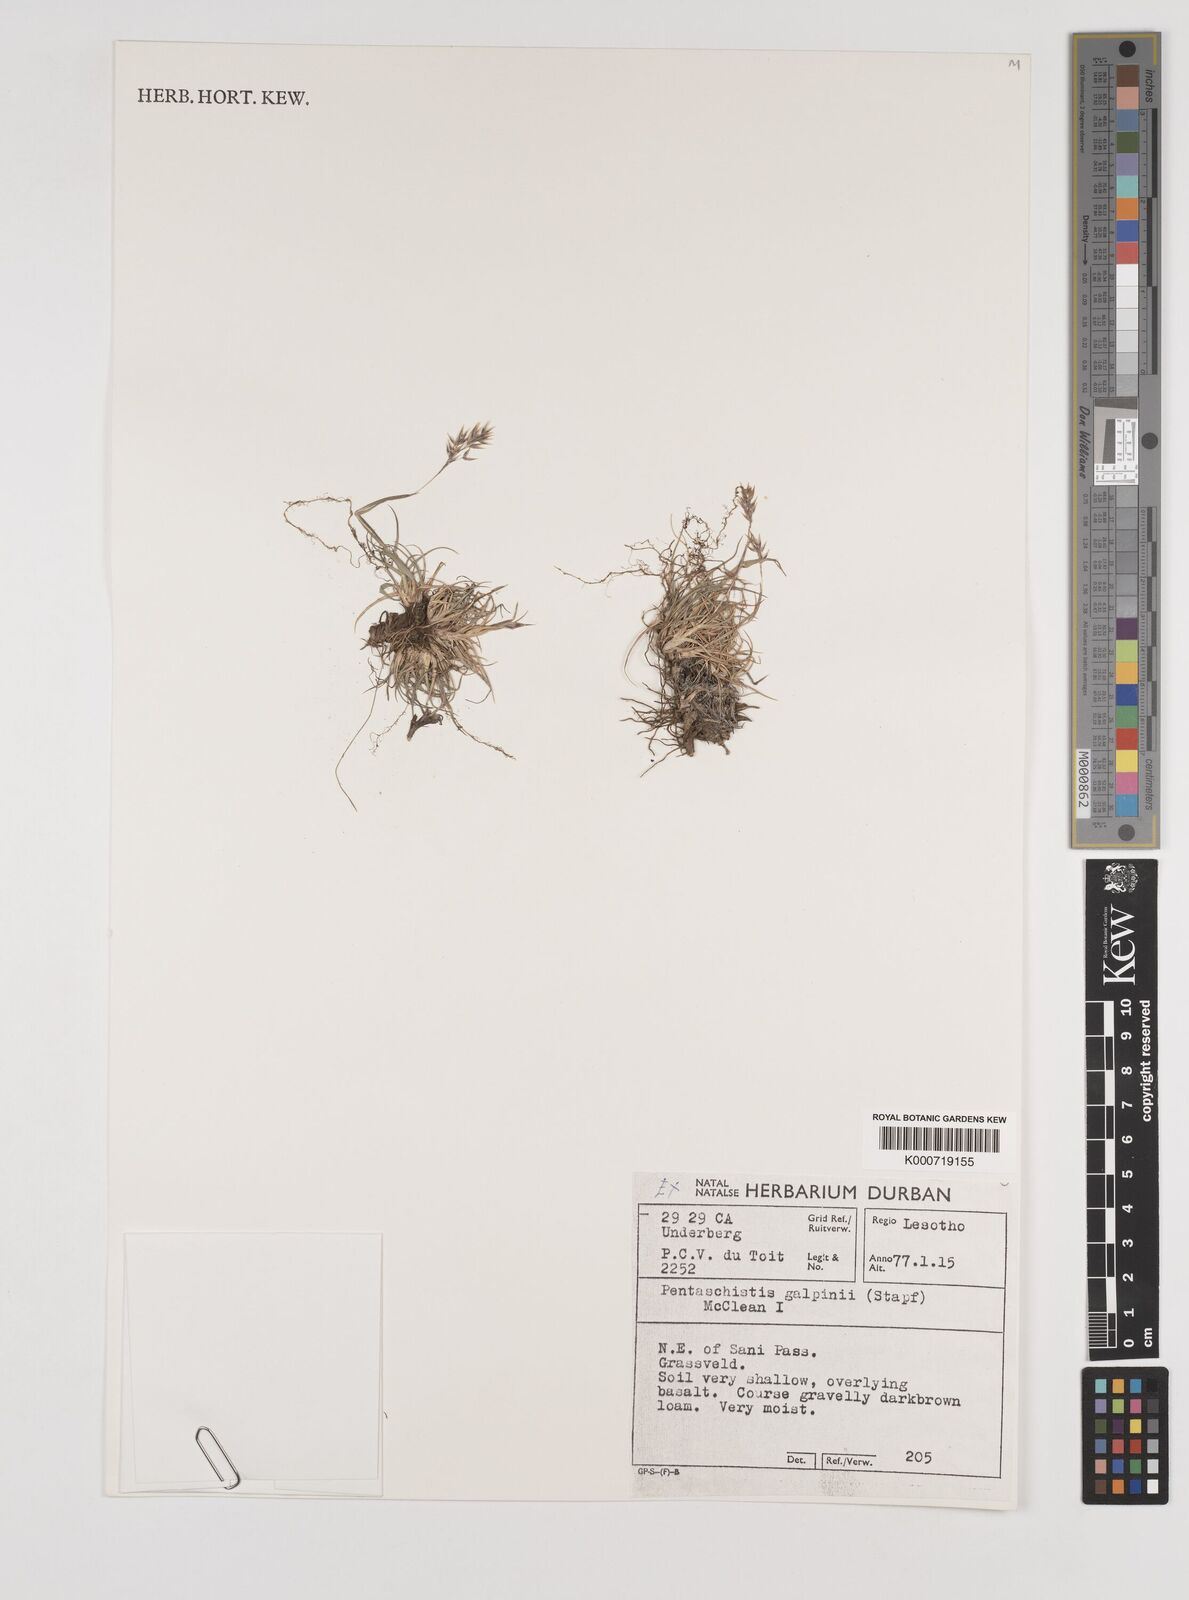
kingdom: Plantae
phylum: Tracheophyta
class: Liliopsida
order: Poales
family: Poaceae
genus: Pentameris
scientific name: Pentameris galpinii
